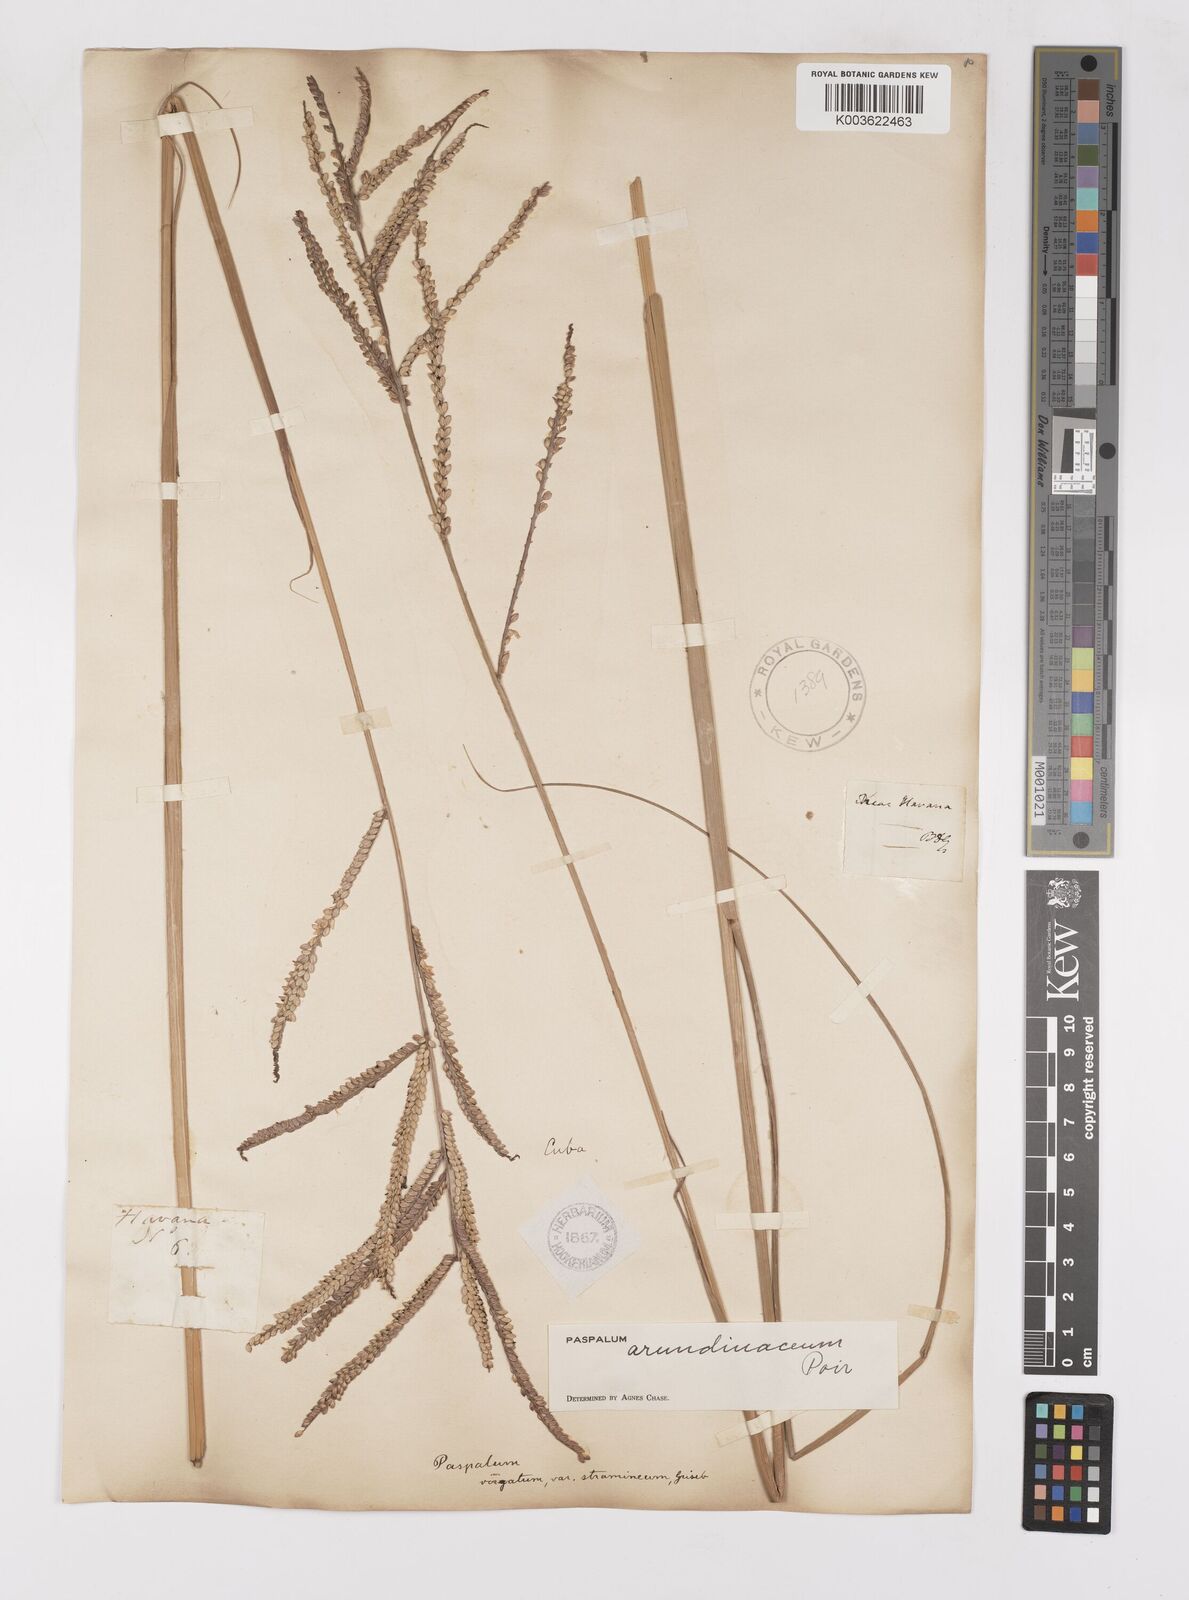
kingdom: Plantae
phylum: Tracheophyta
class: Liliopsida
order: Poales
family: Poaceae
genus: Paspalum
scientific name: Paspalum arundinaceum
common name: Thick ditch crowngrass
